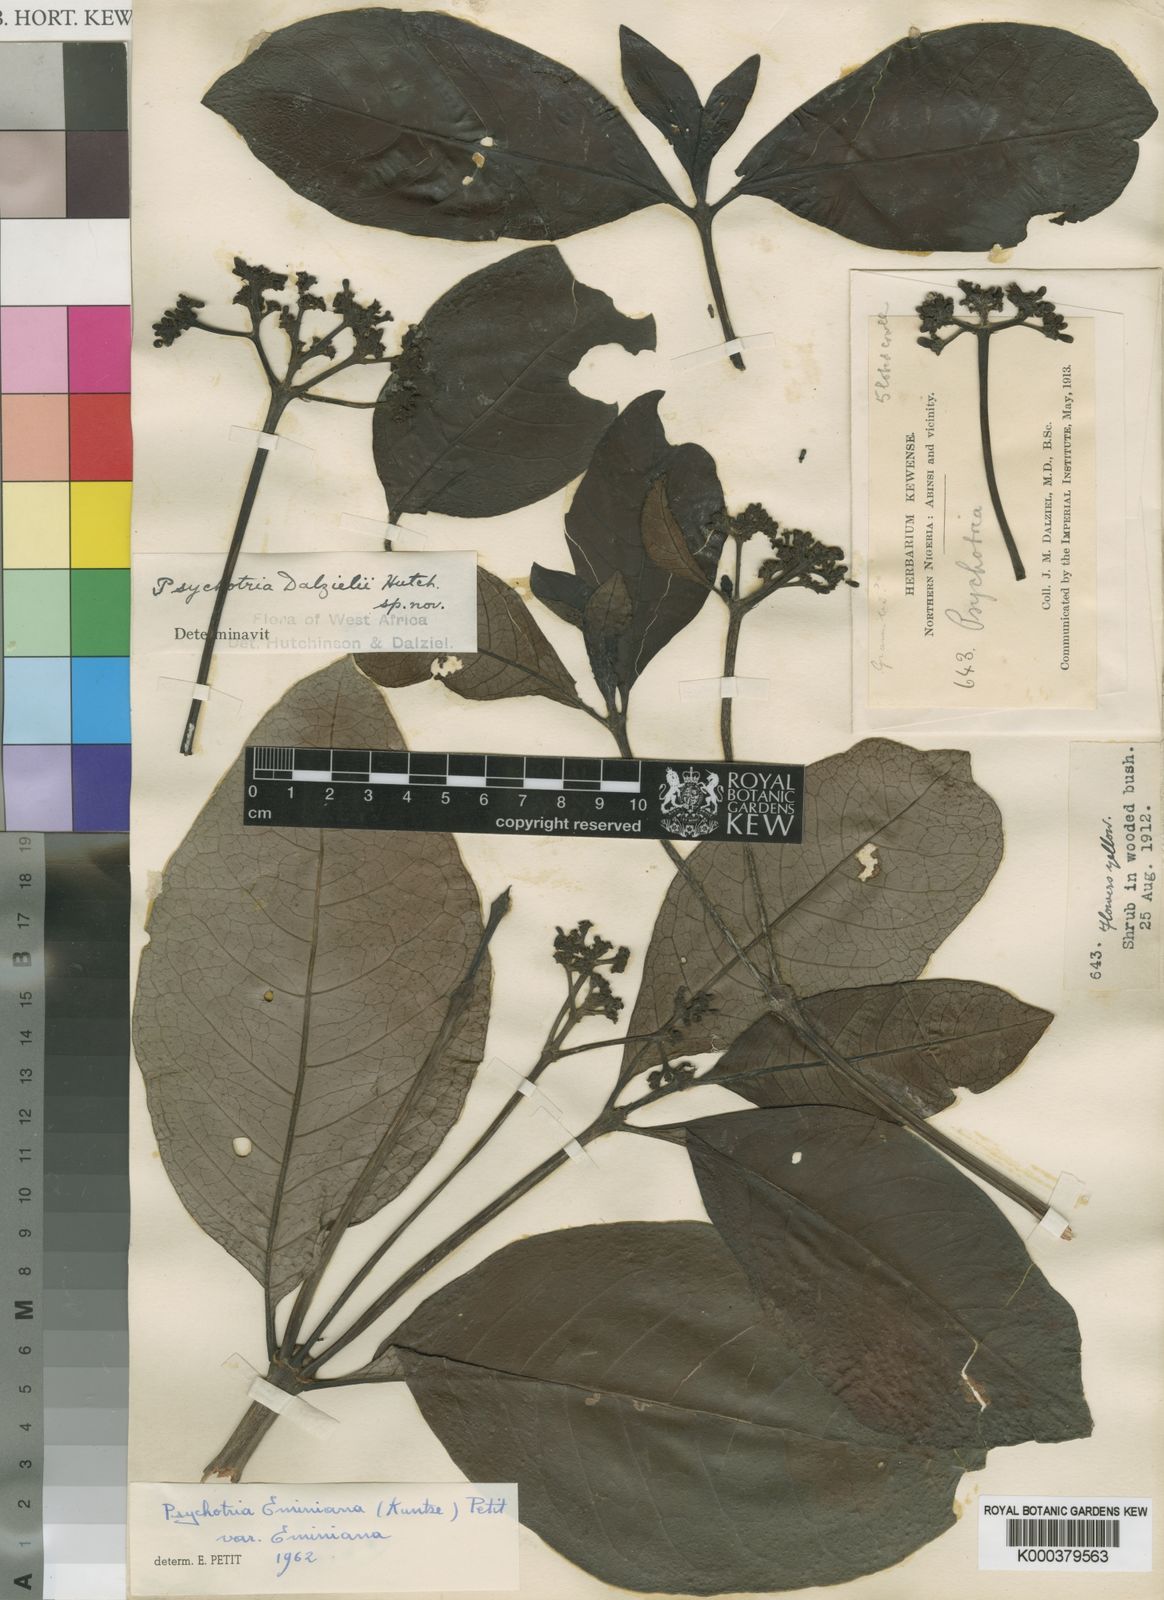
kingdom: Plantae
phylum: Tracheophyta
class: Magnoliopsida
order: Gentianales
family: Rubiaceae
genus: Psychotria
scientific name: Psychotria eminiana
